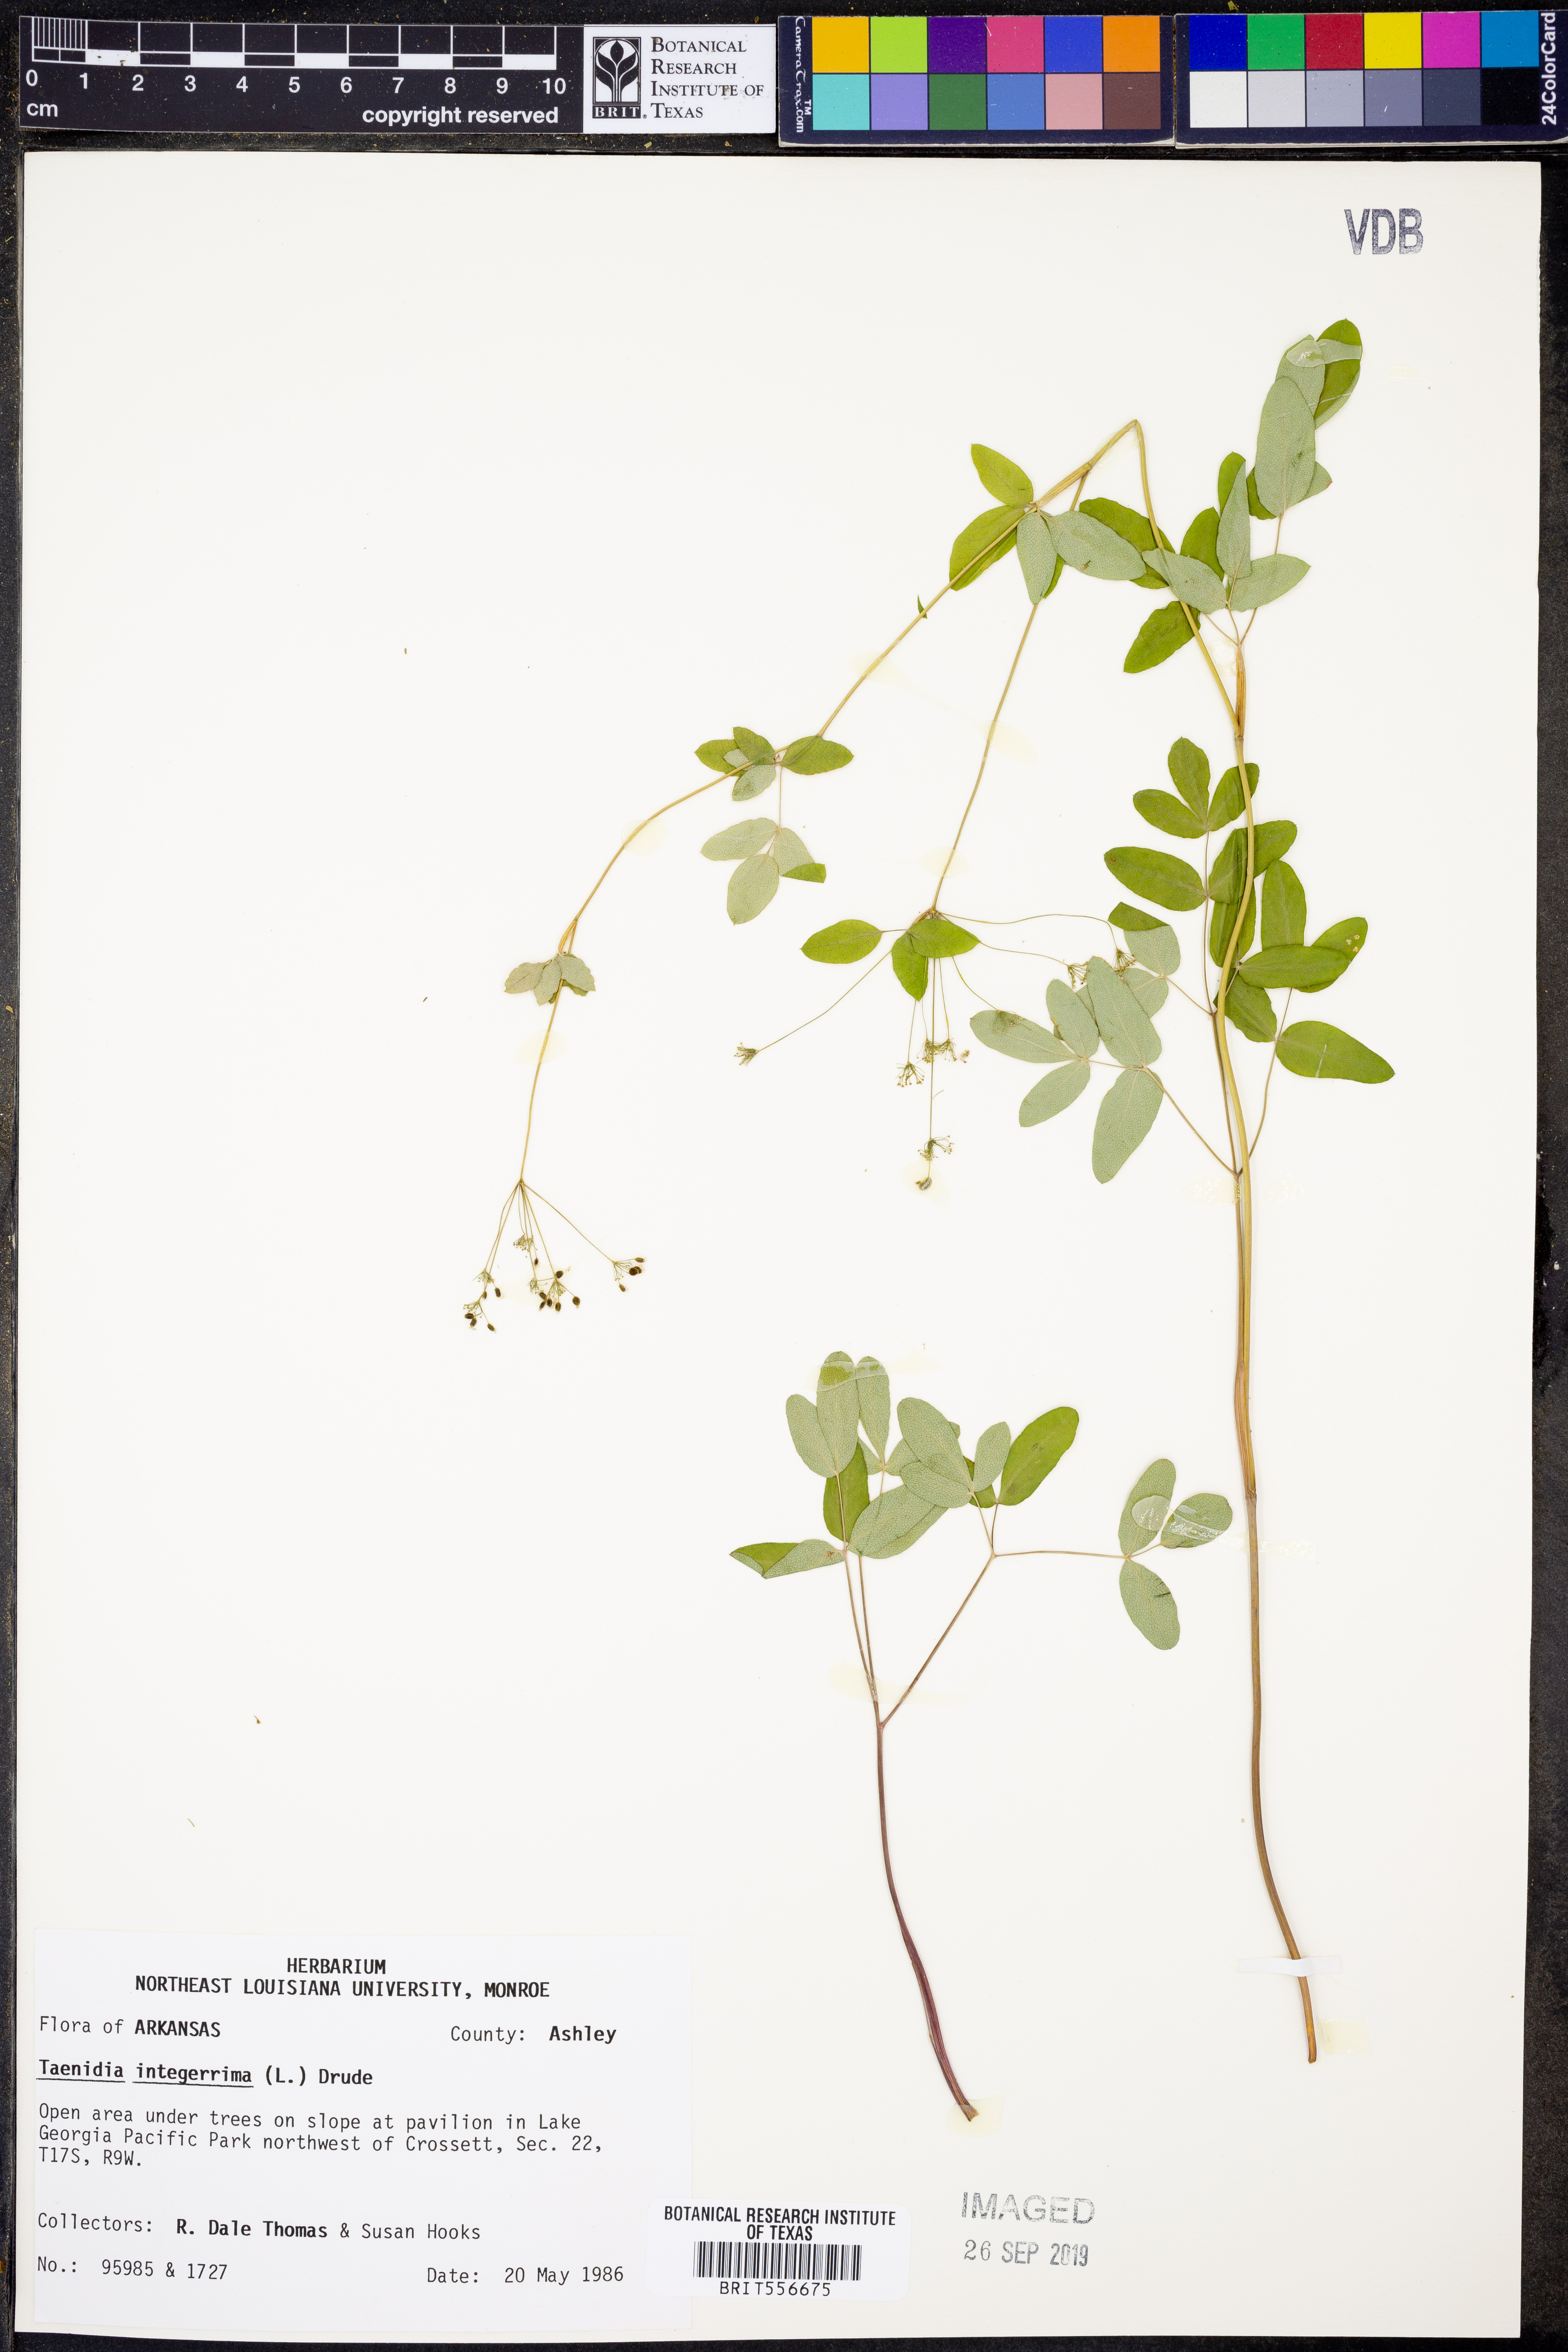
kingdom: Plantae
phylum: Tracheophyta
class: Magnoliopsida
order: Apiales
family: Apiaceae
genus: Taenidia
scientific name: Taenidia integerrima
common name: Golden alexander
